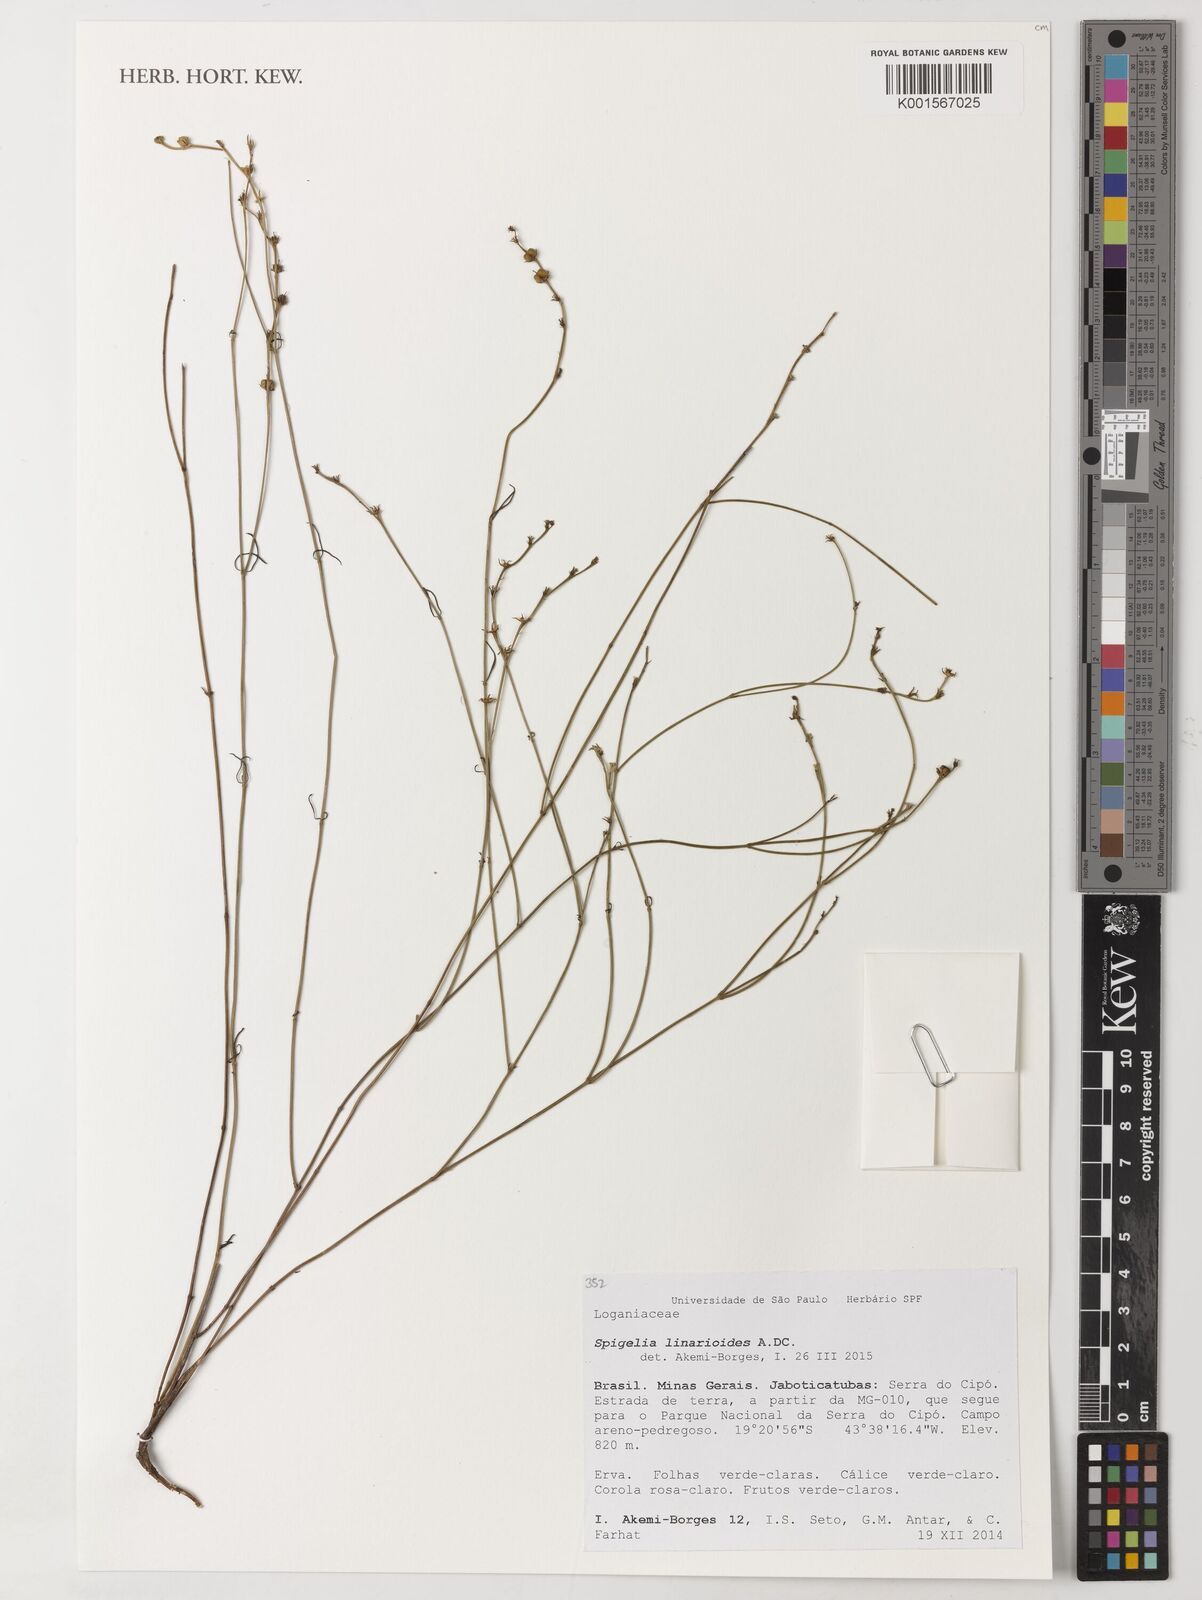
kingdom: Plantae
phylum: Tracheophyta
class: Magnoliopsida
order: Gentianales
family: Loganiaceae
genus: Spigelia
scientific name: Spigelia linarioides
